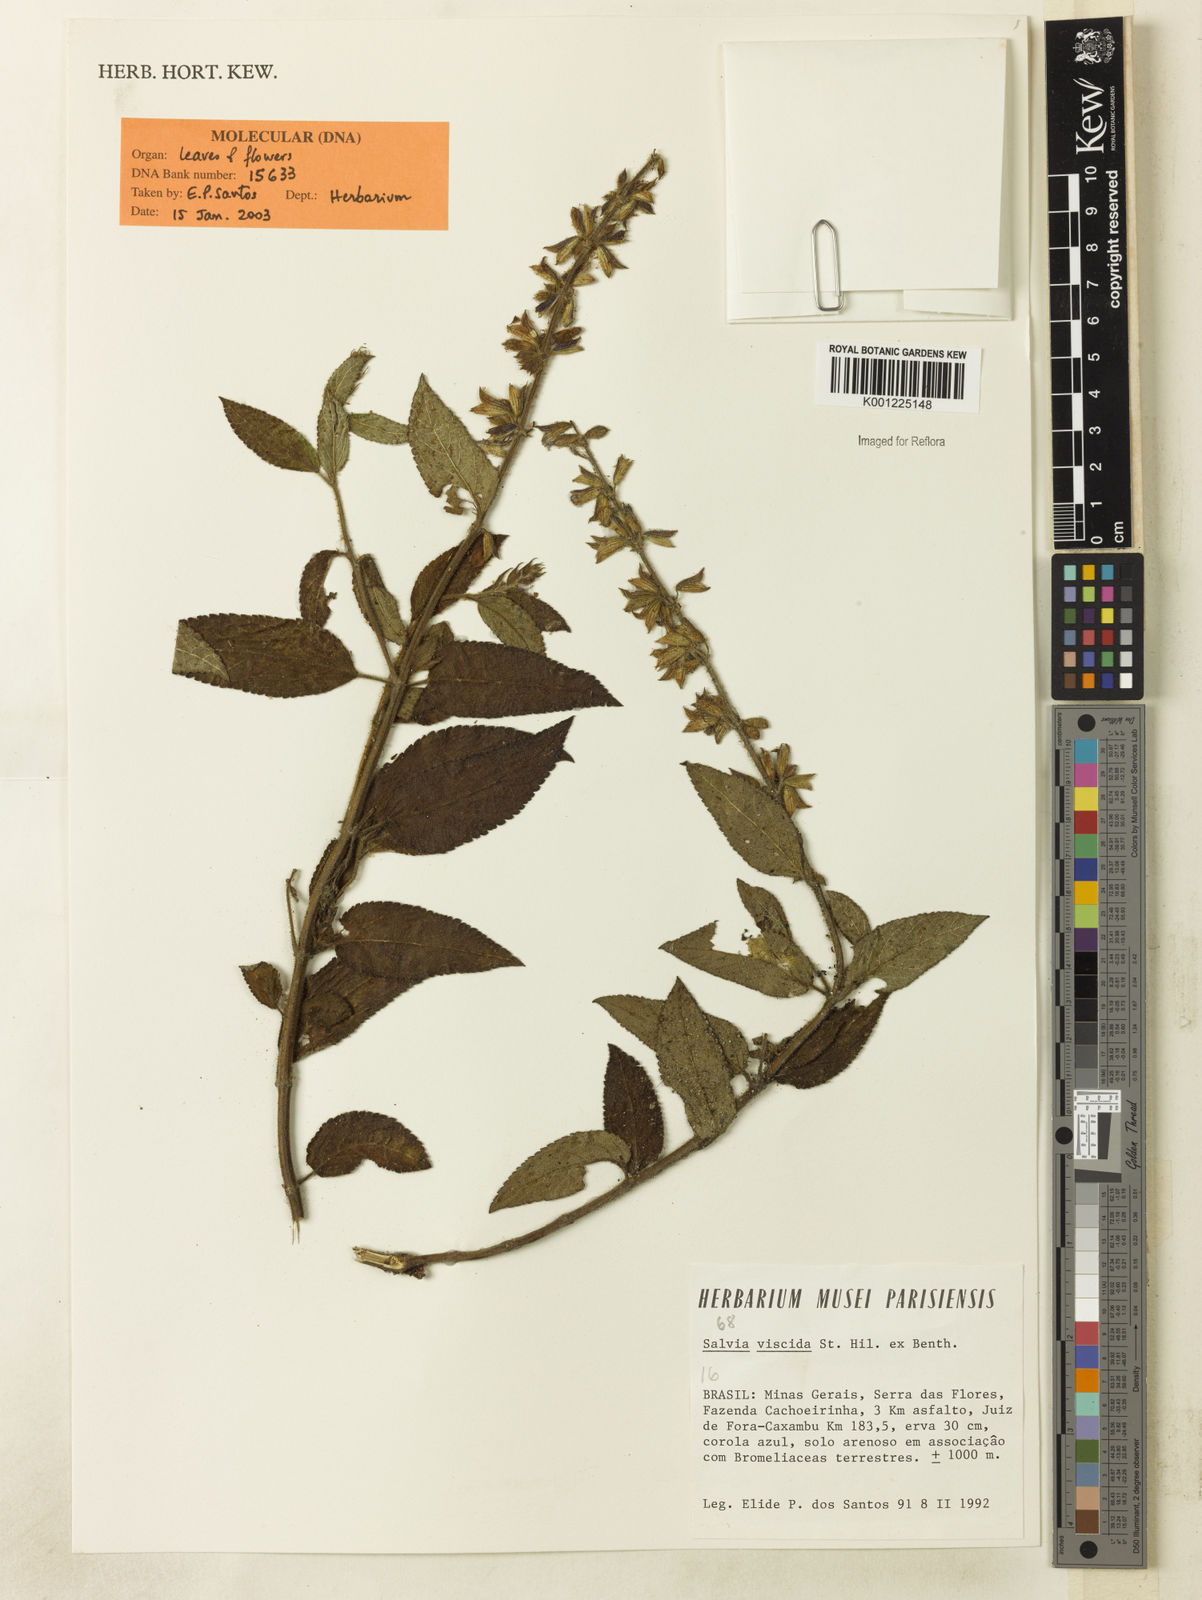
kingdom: Plantae
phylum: Tracheophyta
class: Magnoliopsida
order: Lamiales
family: Lamiaceae
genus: Salvia
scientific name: Salvia viscida
